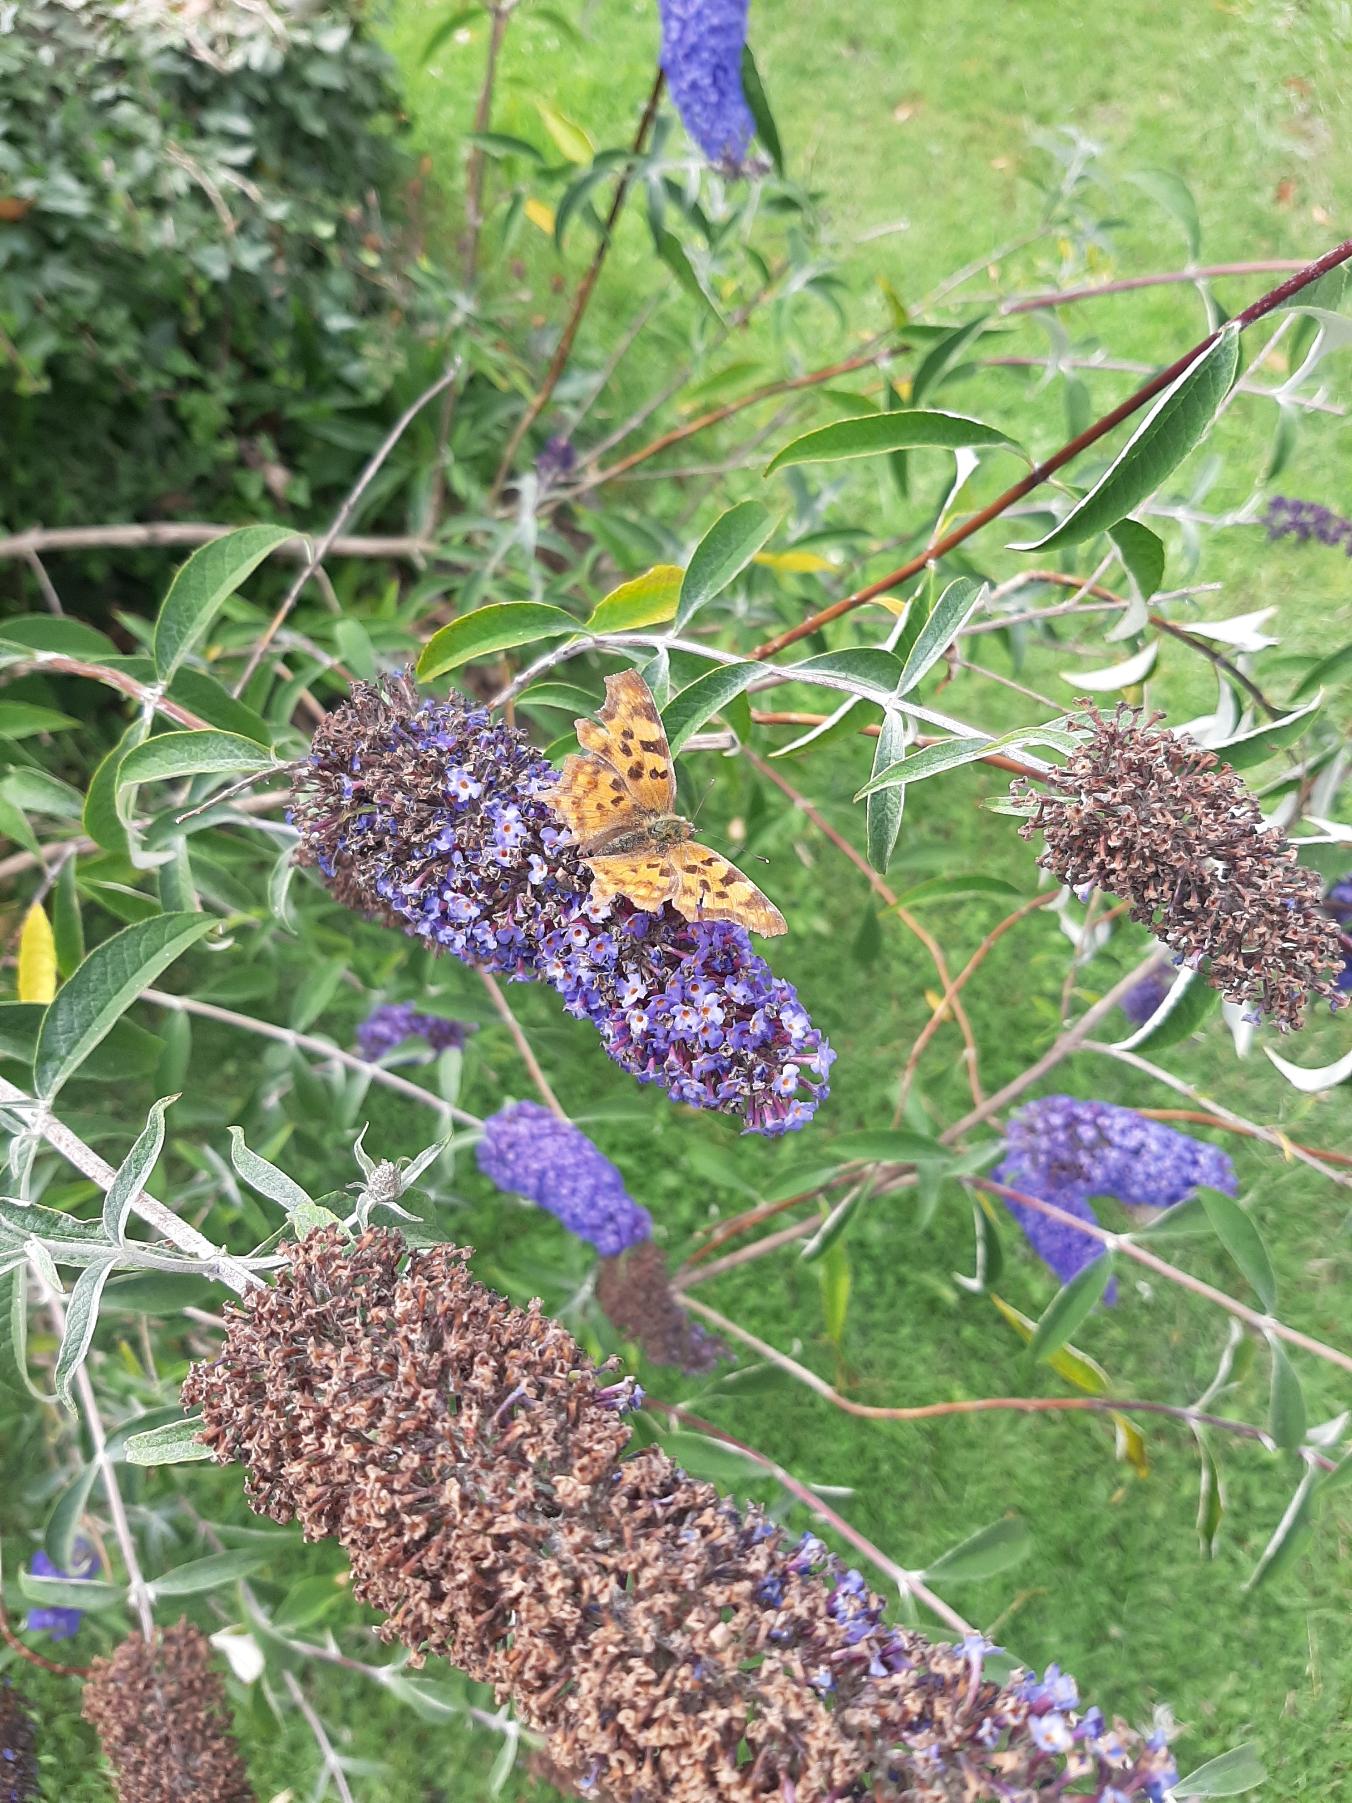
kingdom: Animalia
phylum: Arthropoda
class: Insecta
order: Lepidoptera
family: Nymphalidae
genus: Polygonia
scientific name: Polygonia c-album
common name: Det hvide C
